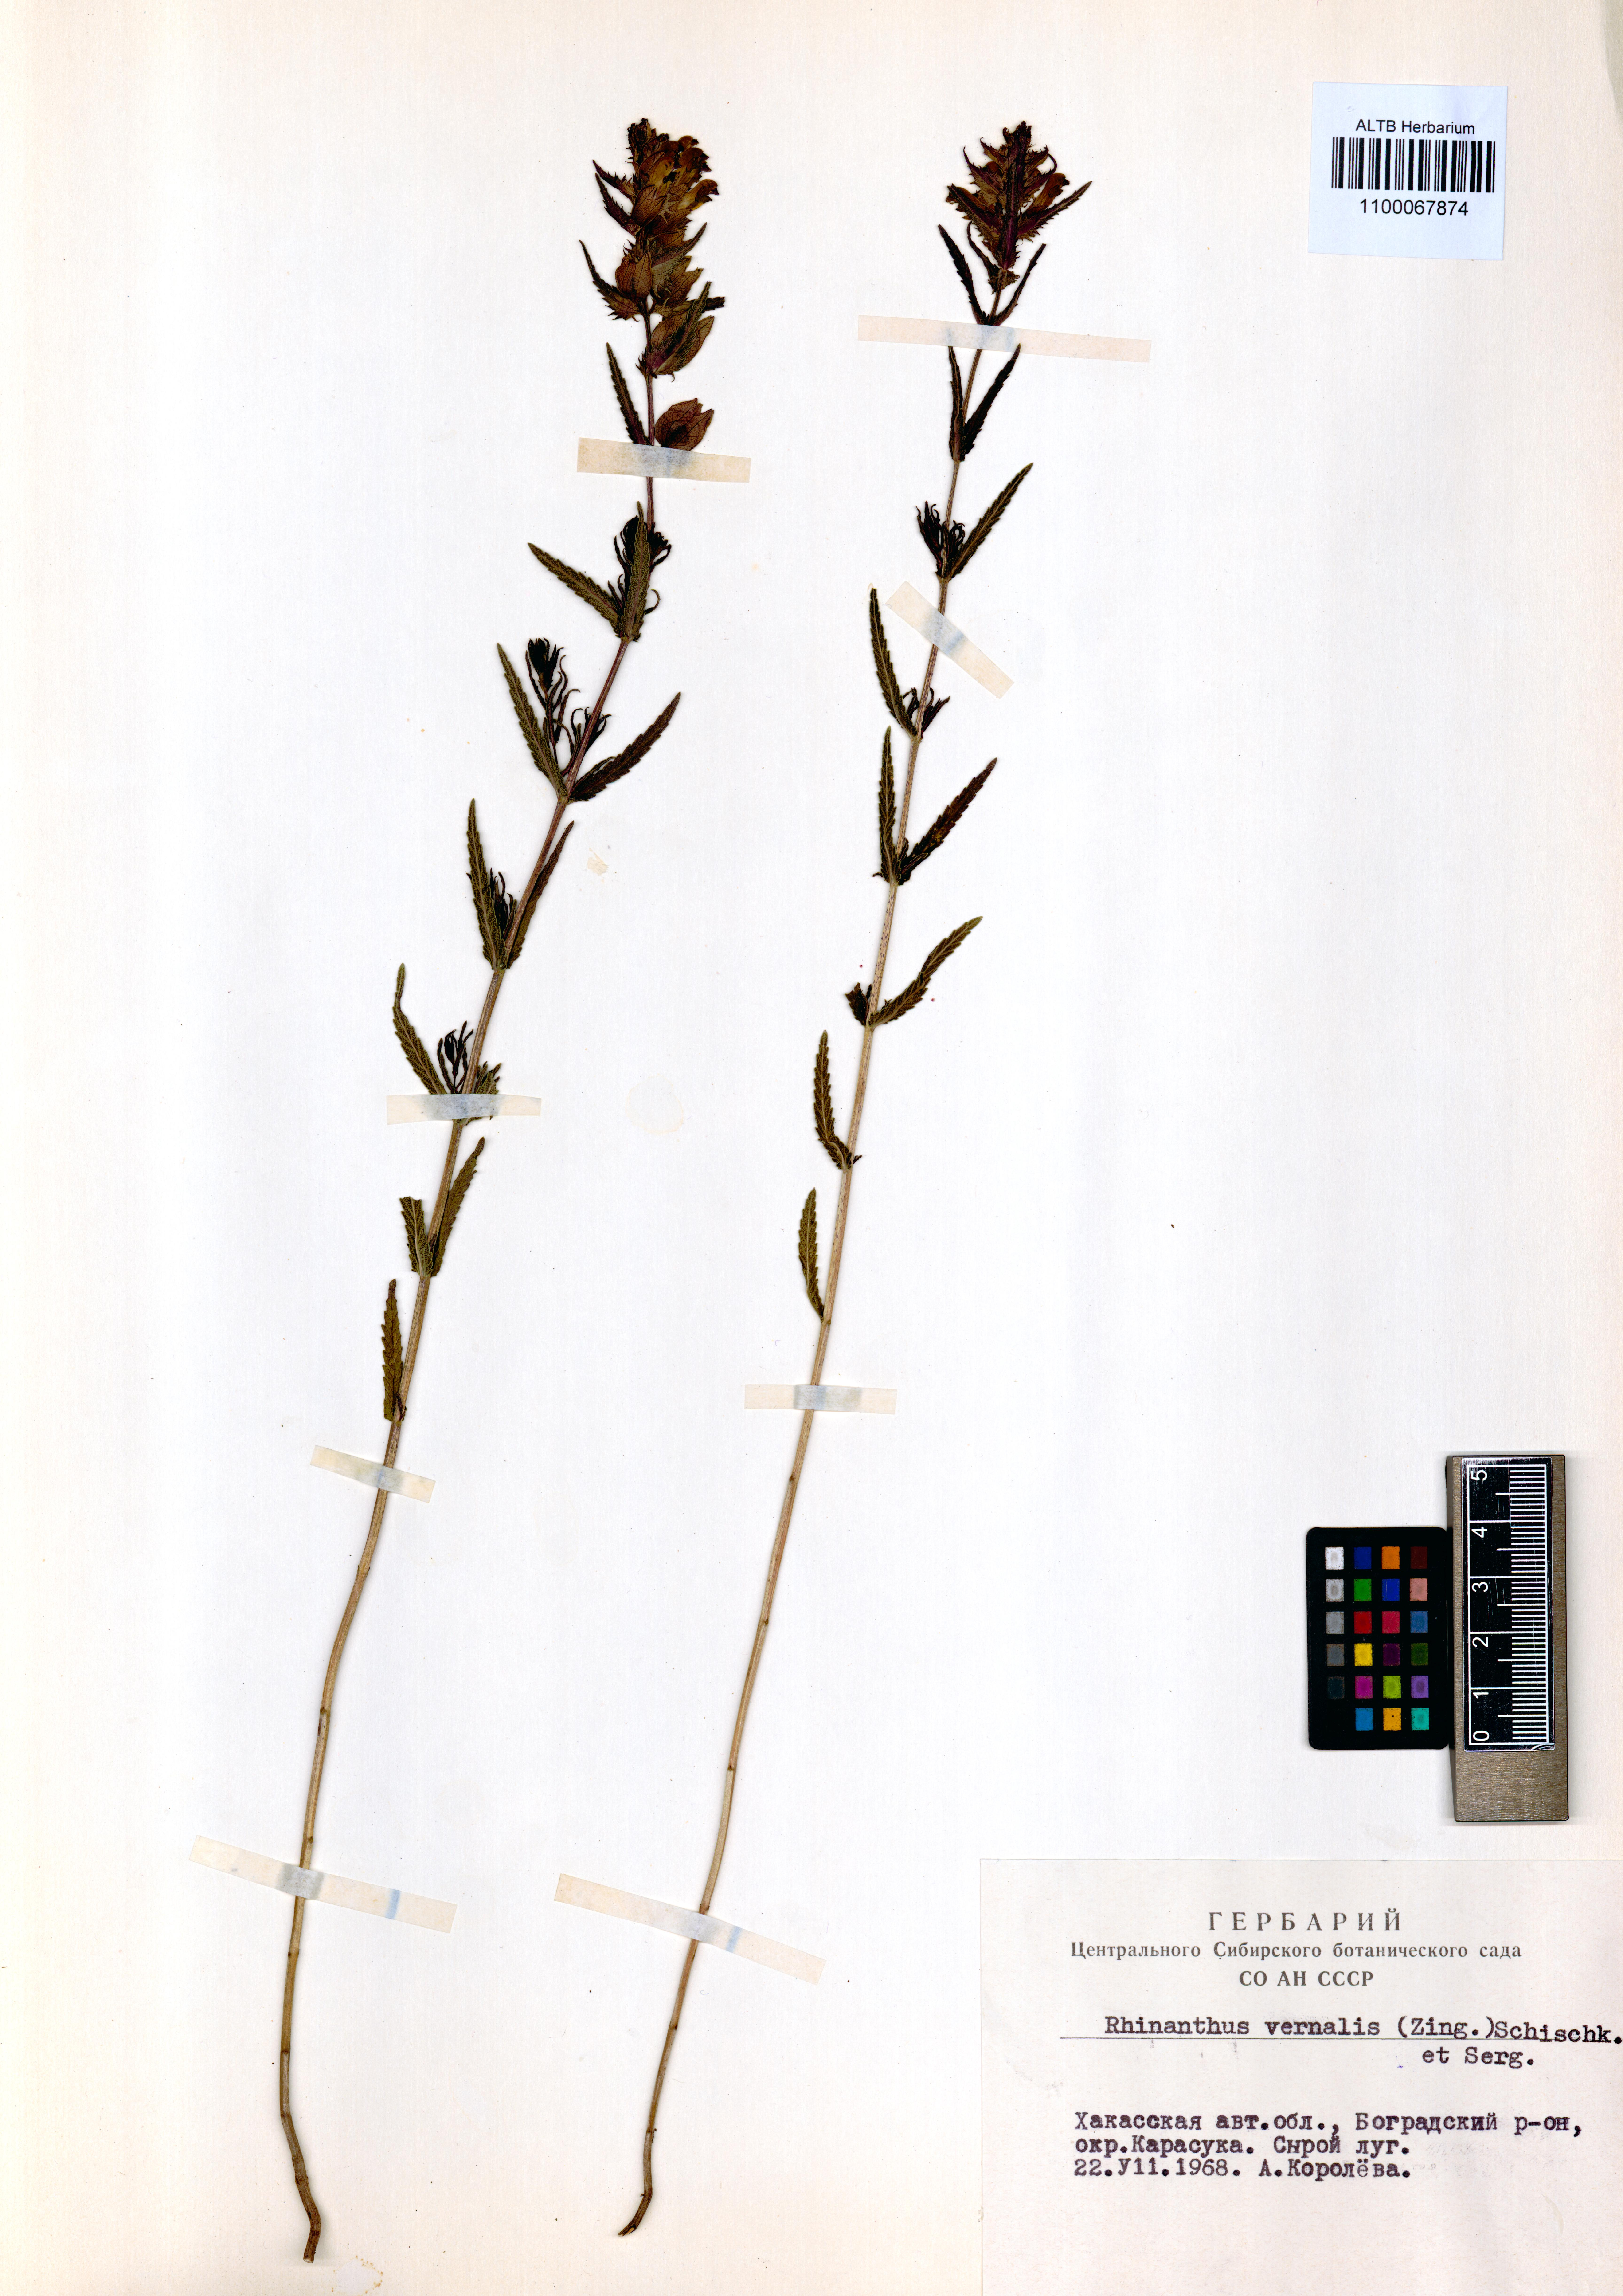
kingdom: Plantae
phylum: Tracheophyta
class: Magnoliopsida
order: Lamiales
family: Orobanchaceae
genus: Rhinanthus
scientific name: Rhinanthus serotinus
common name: Late-flowering yellow rattle
